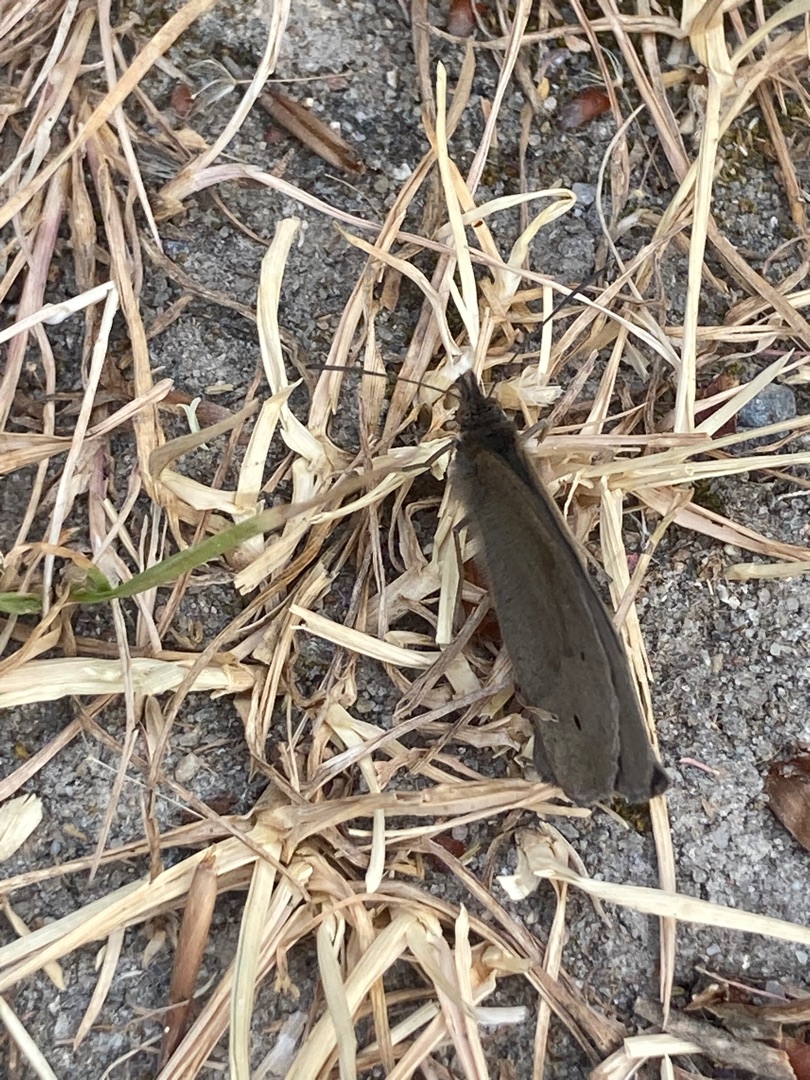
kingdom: Animalia
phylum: Arthropoda
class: Insecta
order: Lepidoptera
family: Nymphalidae
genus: Maniola
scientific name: Maniola jurtina
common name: Græsrandøje
